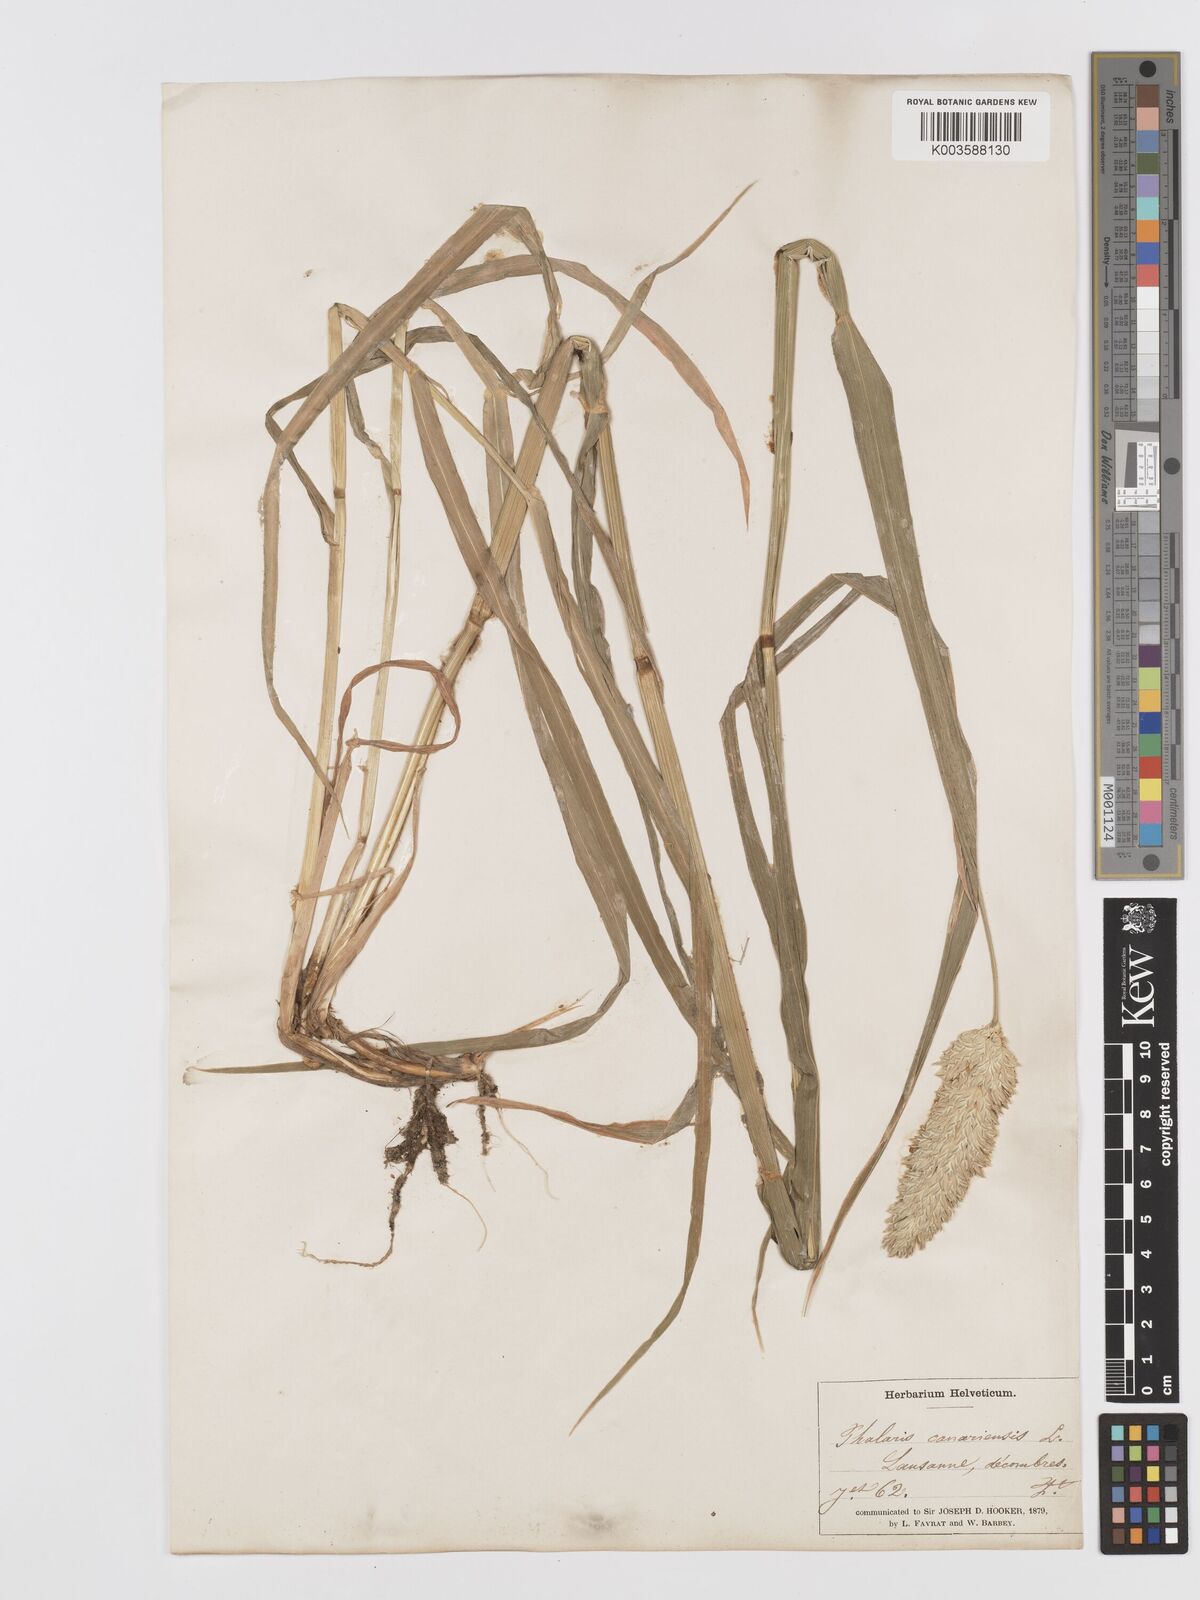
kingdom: Plantae
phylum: Tracheophyta
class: Liliopsida
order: Poales
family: Poaceae
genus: Phalaris
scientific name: Phalaris canariensis
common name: Annual canarygrass
